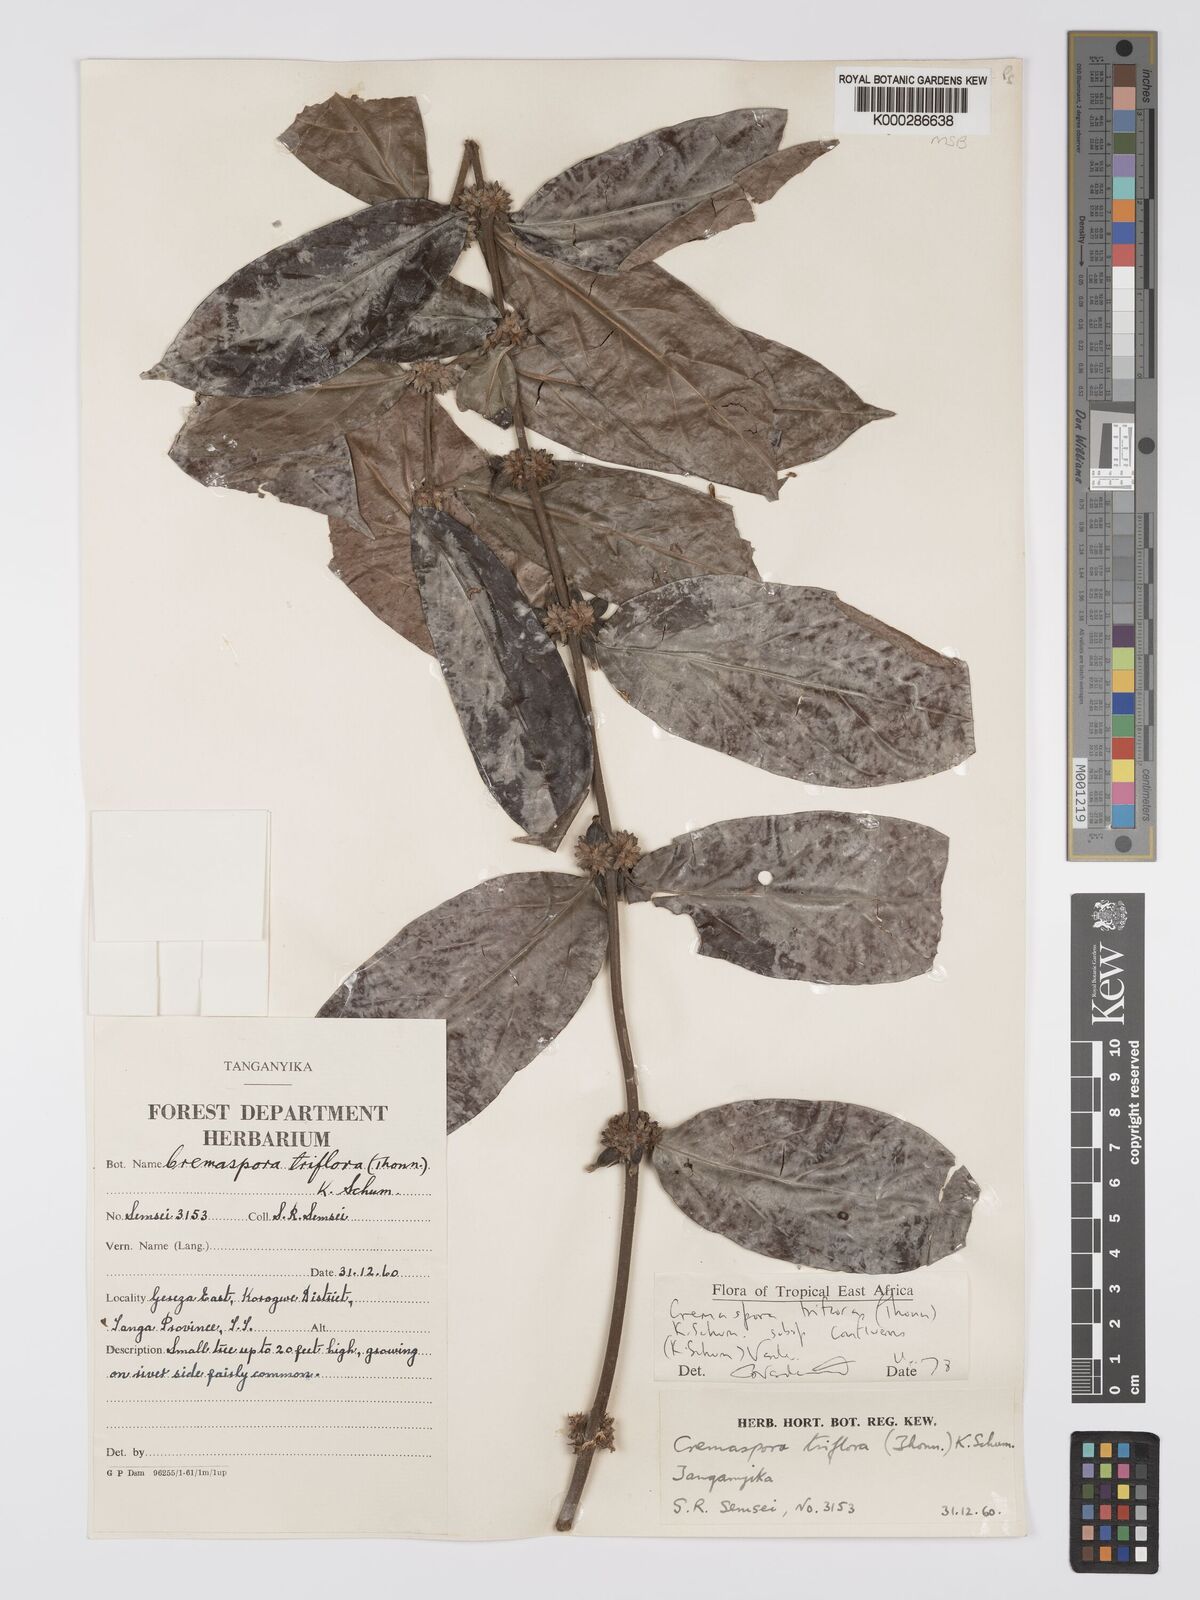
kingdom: Plantae
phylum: Tracheophyta
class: Magnoliopsida
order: Gentianales
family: Rubiaceae
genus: Cremaspora
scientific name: Cremaspora triflora
